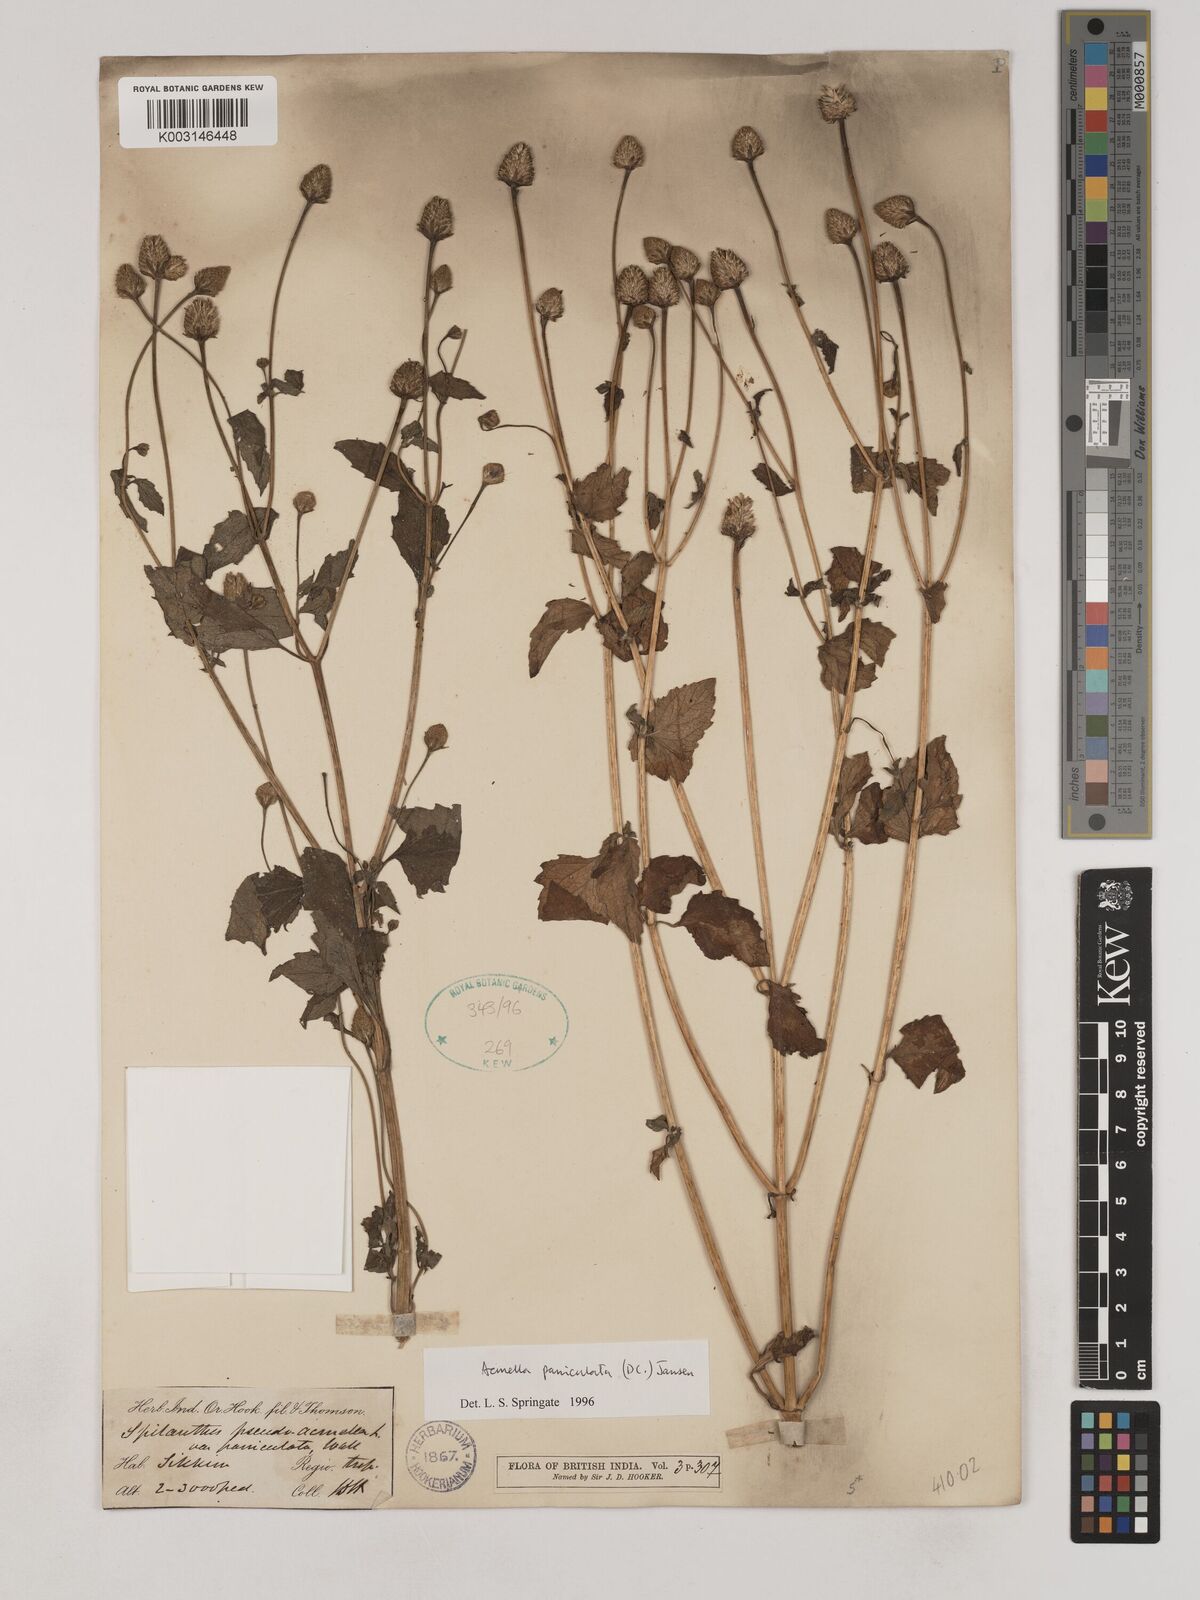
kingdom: Plantae
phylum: Tracheophyta
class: Magnoliopsida
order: Asterales
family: Asteraceae
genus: Acmella
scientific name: Acmella paniculata
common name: Panicled spot flower
